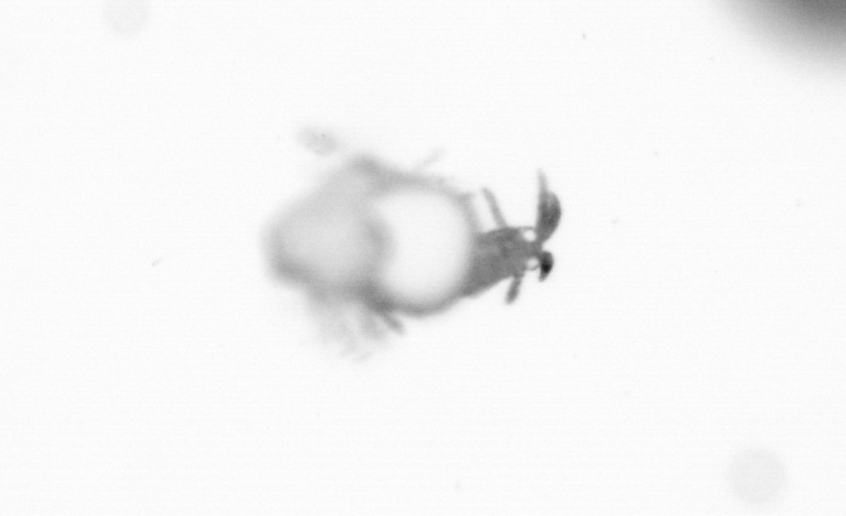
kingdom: Animalia
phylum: Annelida
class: Polychaeta
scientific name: Polychaeta
